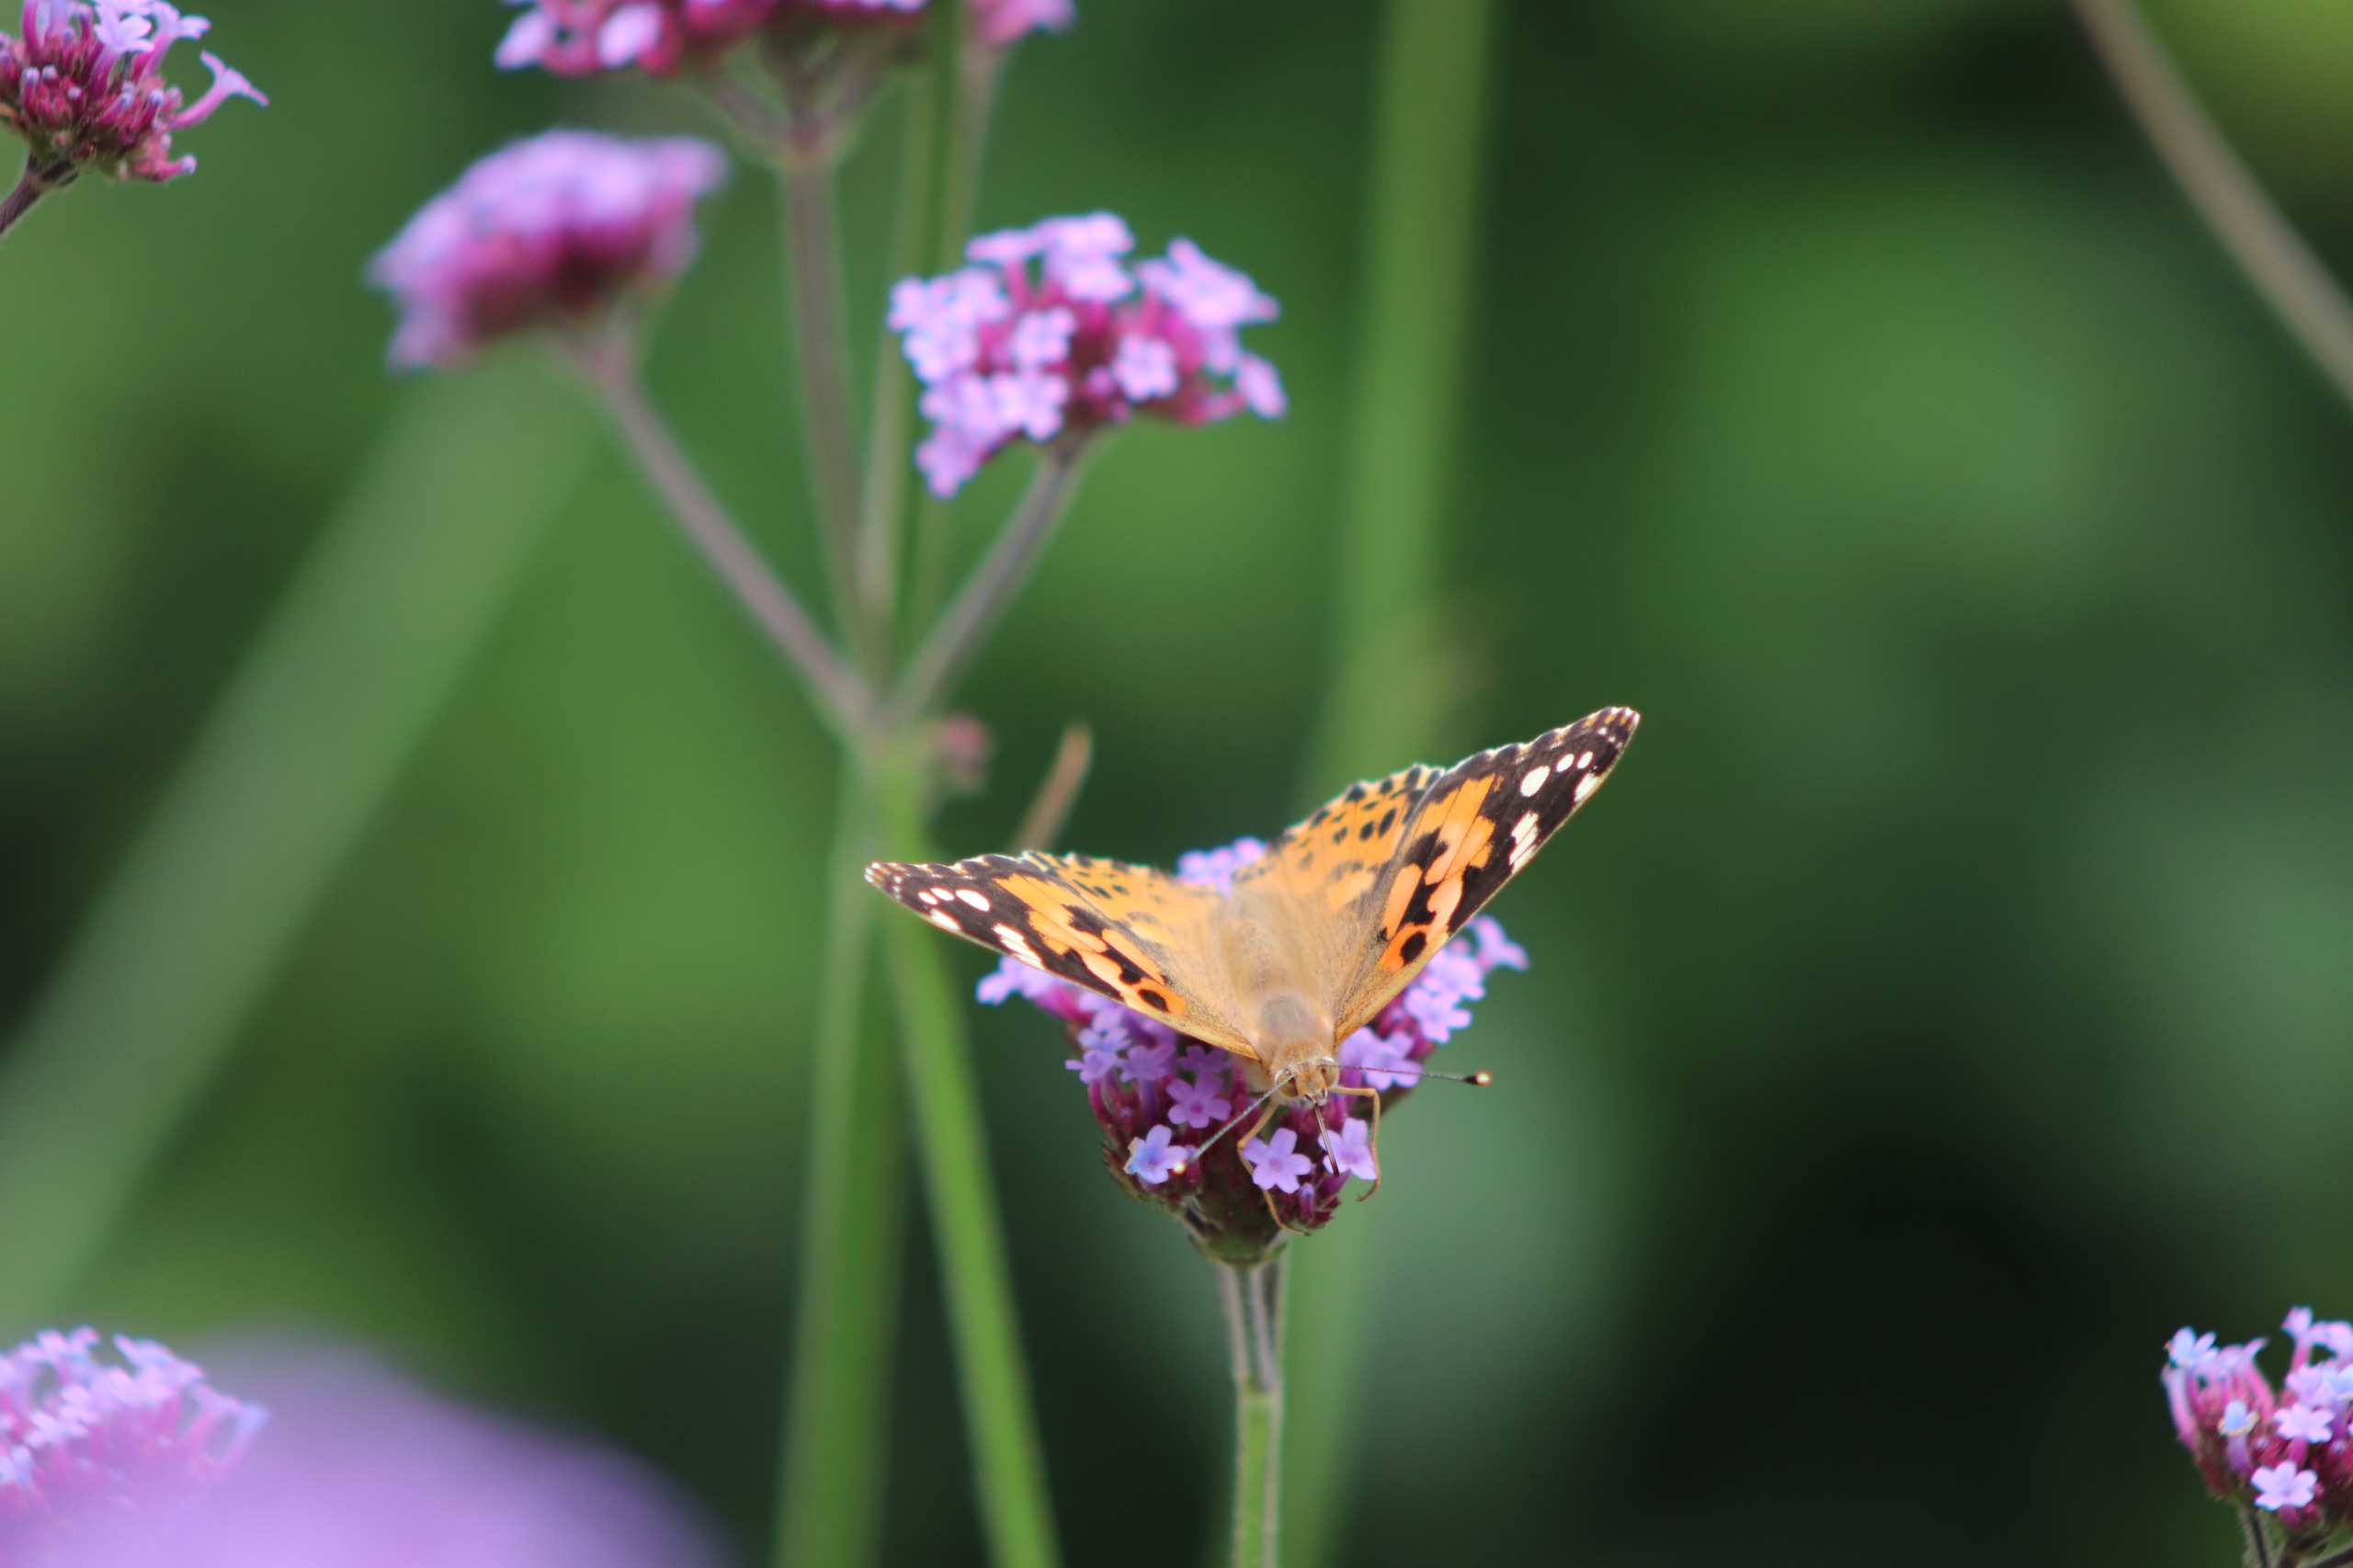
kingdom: Animalia
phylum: Arthropoda
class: Insecta
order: Lepidoptera
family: Nymphalidae
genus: Vanessa
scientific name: Vanessa cardui
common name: Tidselsommerfugl
